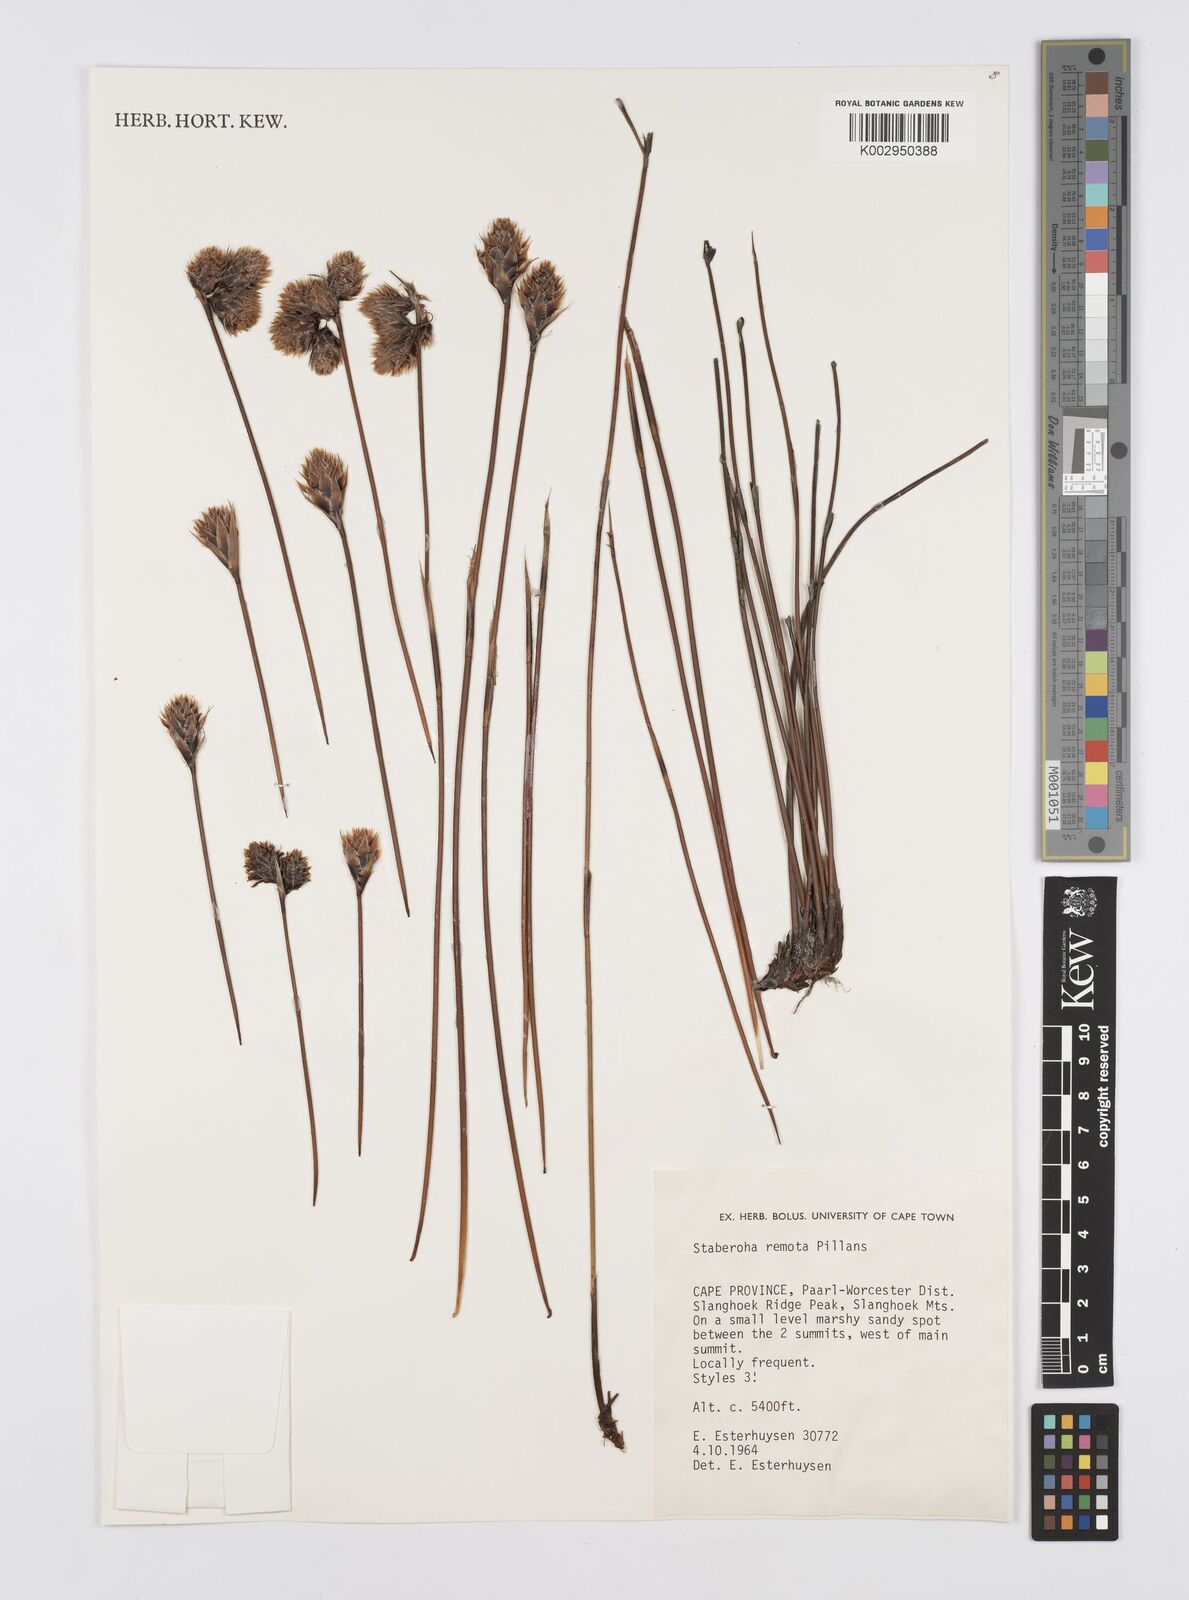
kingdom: Plantae
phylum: Tracheophyta
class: Liliopsida
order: Poales
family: Restionaceae
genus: Staberoha
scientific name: Staberoha remota
